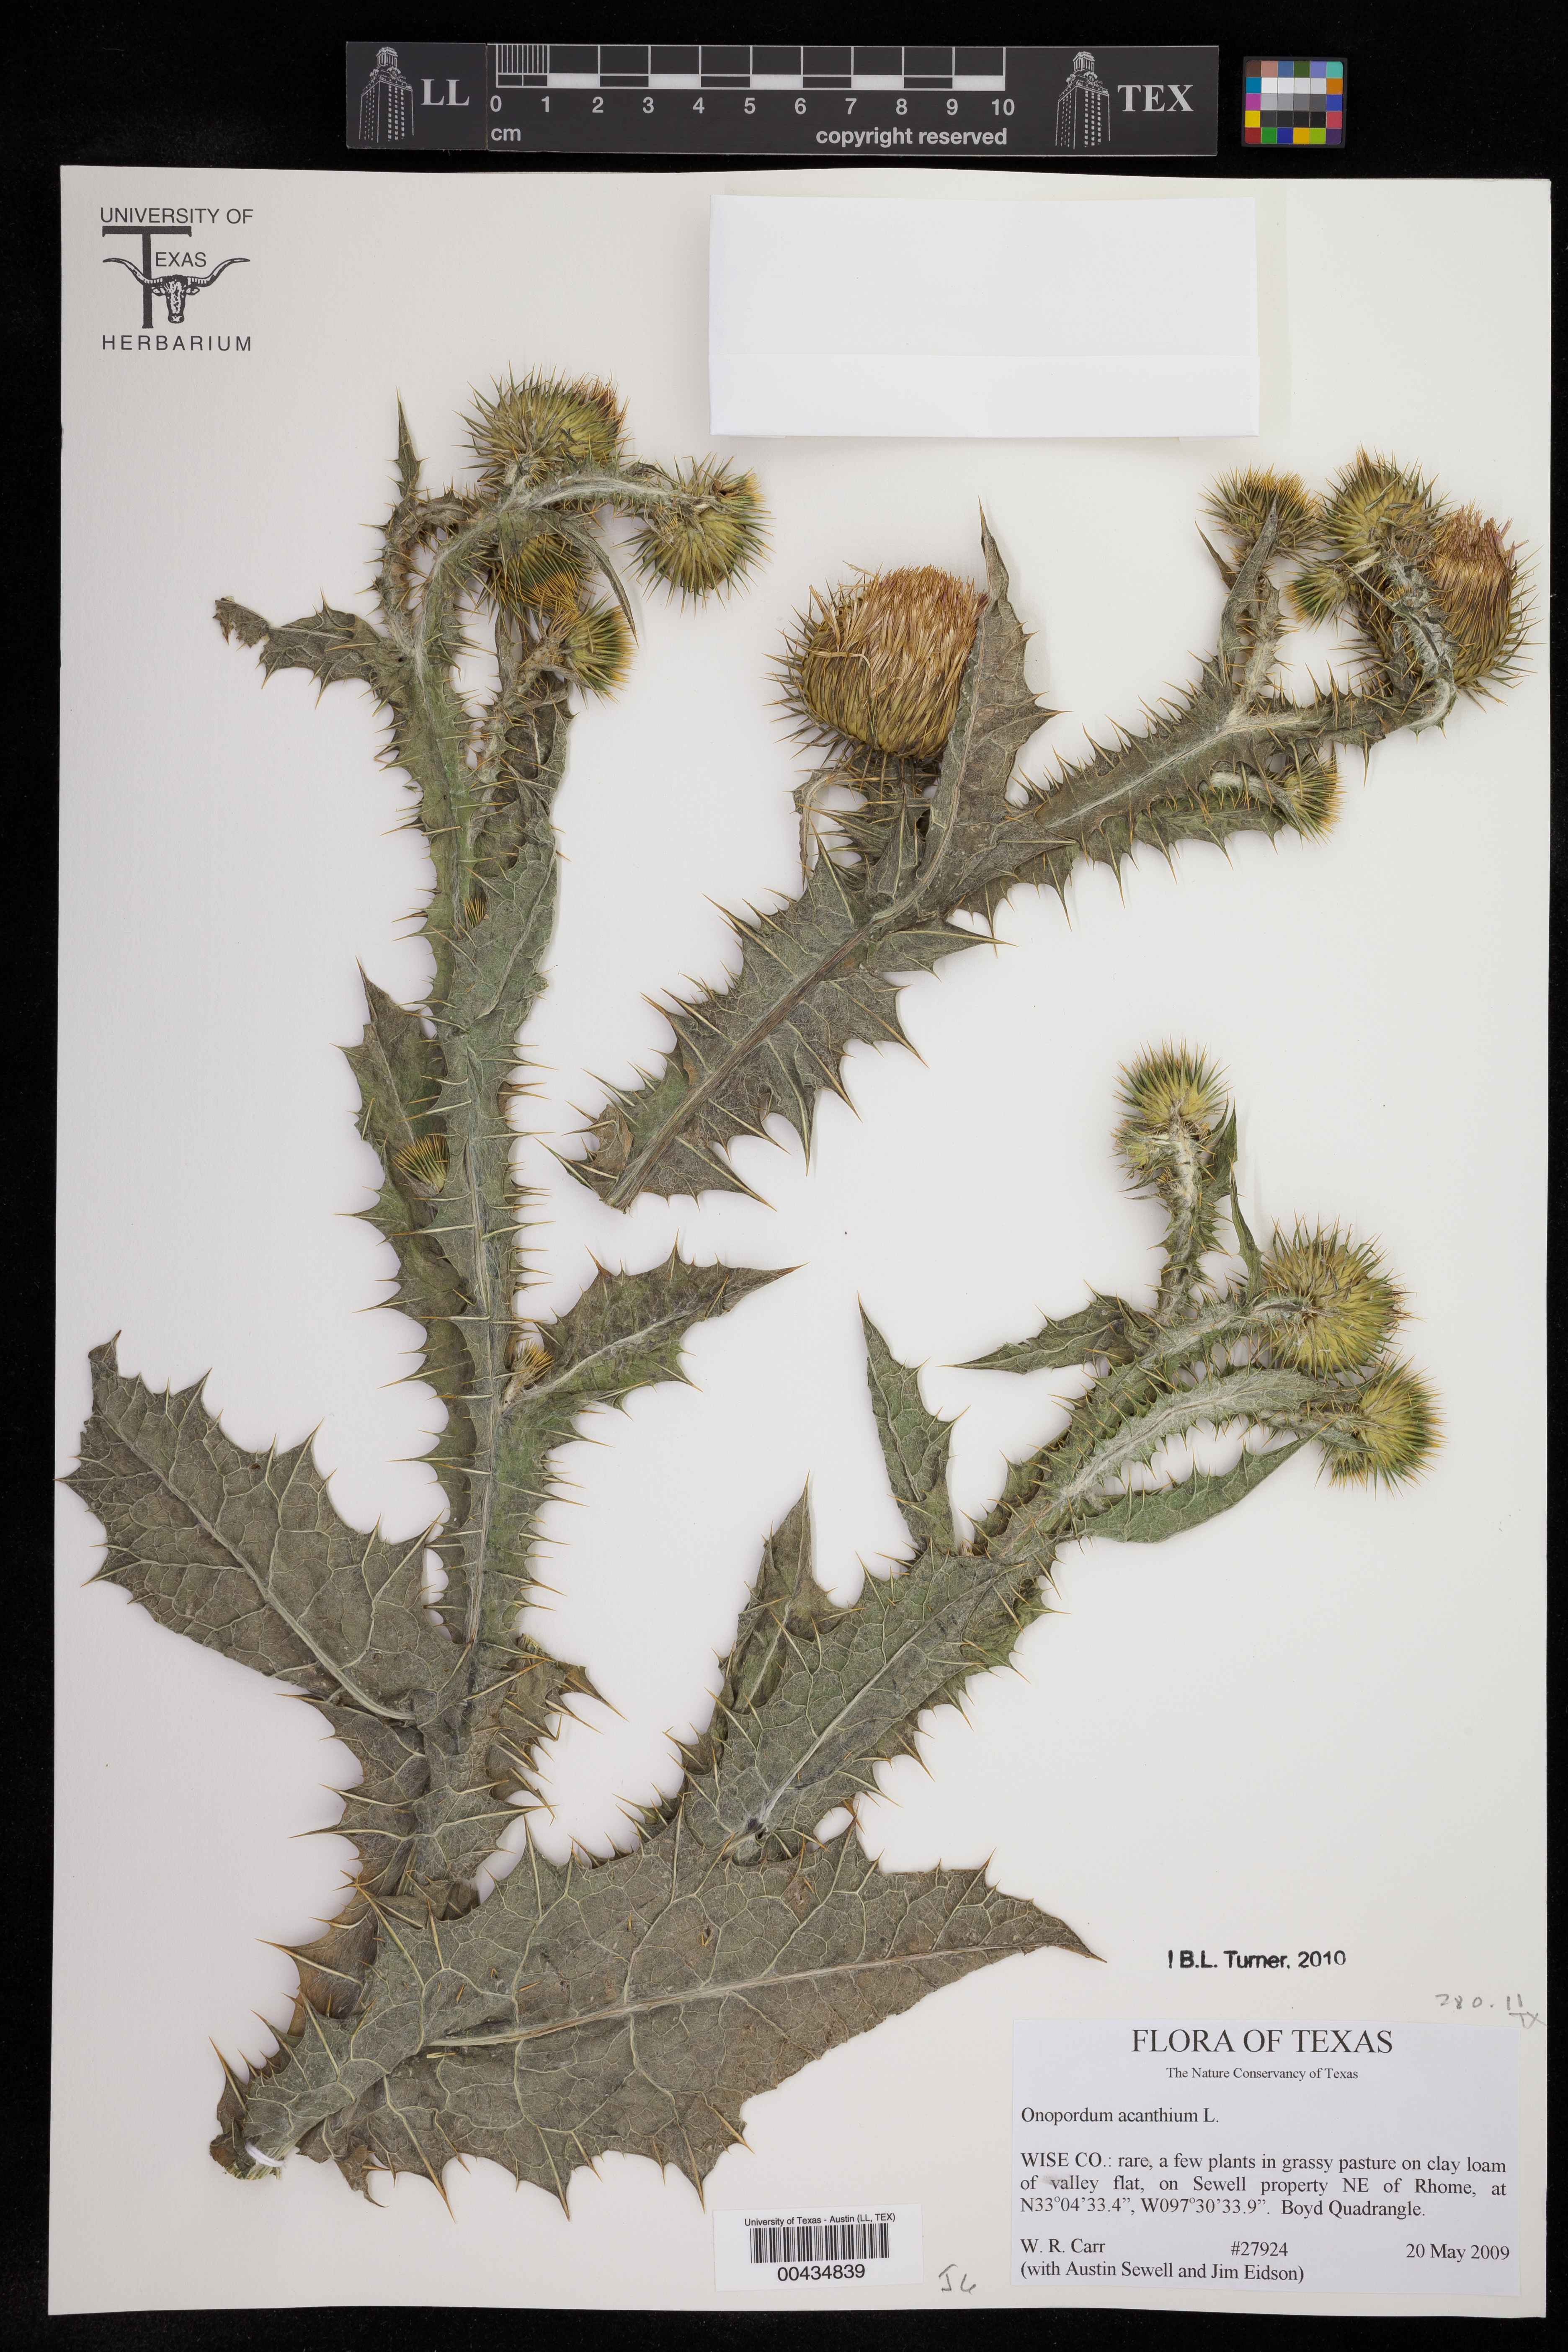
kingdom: Plantae
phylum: Tracheophyta
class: Magnoliopsida
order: Asterales
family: Asteraceae
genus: Onopordum
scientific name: Onopordum acanthium
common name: Scotch thistle
